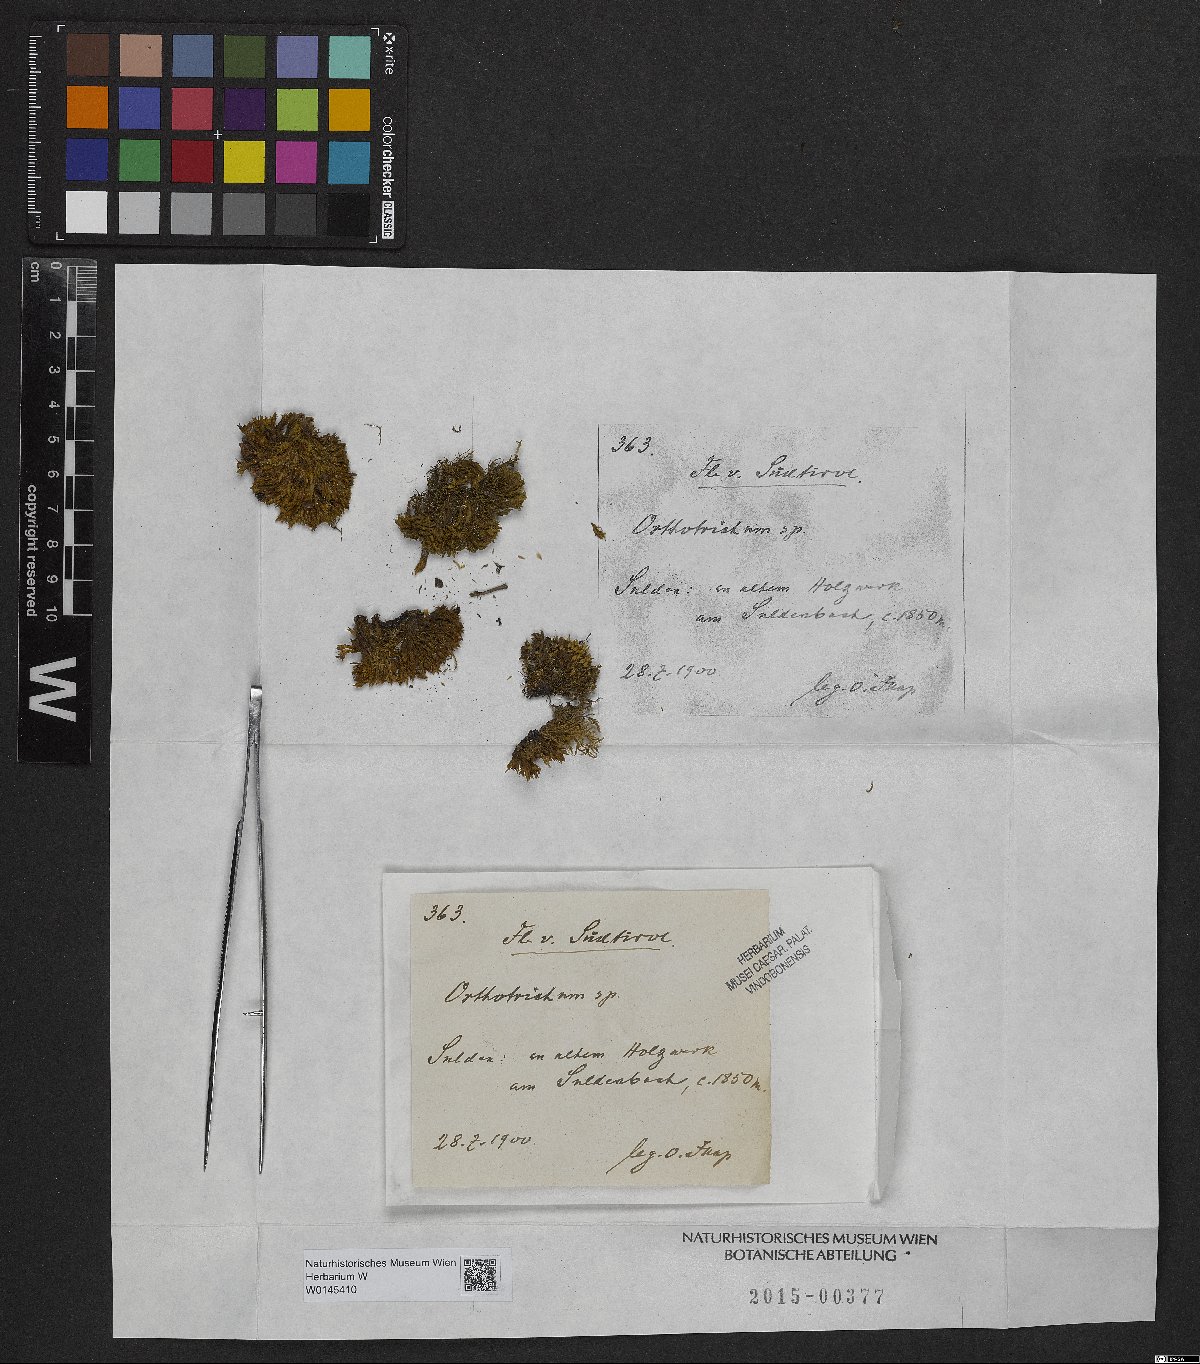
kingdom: Plantae
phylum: Bryophyta
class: Bryopsida
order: Orthotrichales
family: Orthotrichaceae
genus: Orthotrichum
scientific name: Orthotrichum
